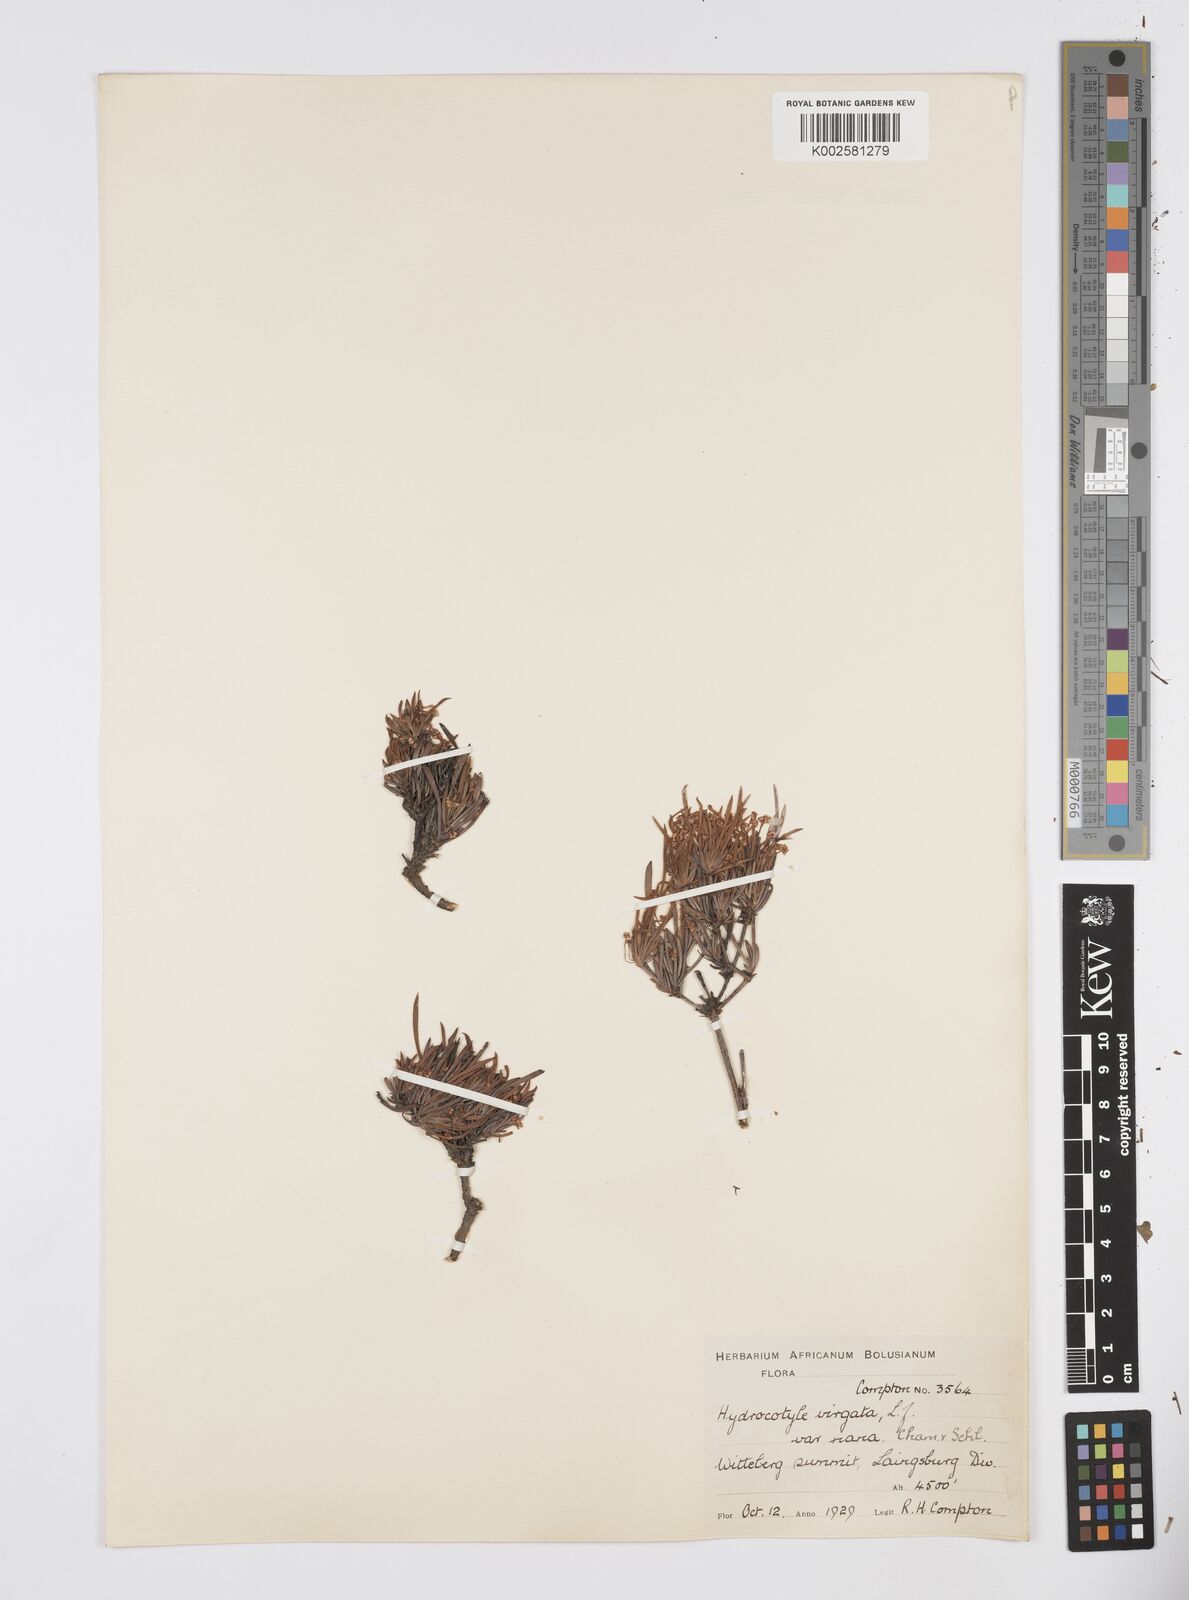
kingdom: Plantae
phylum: Tracheophyta
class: Magnoliopsida
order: Apiales
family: Apiaceae
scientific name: Apiaceae
